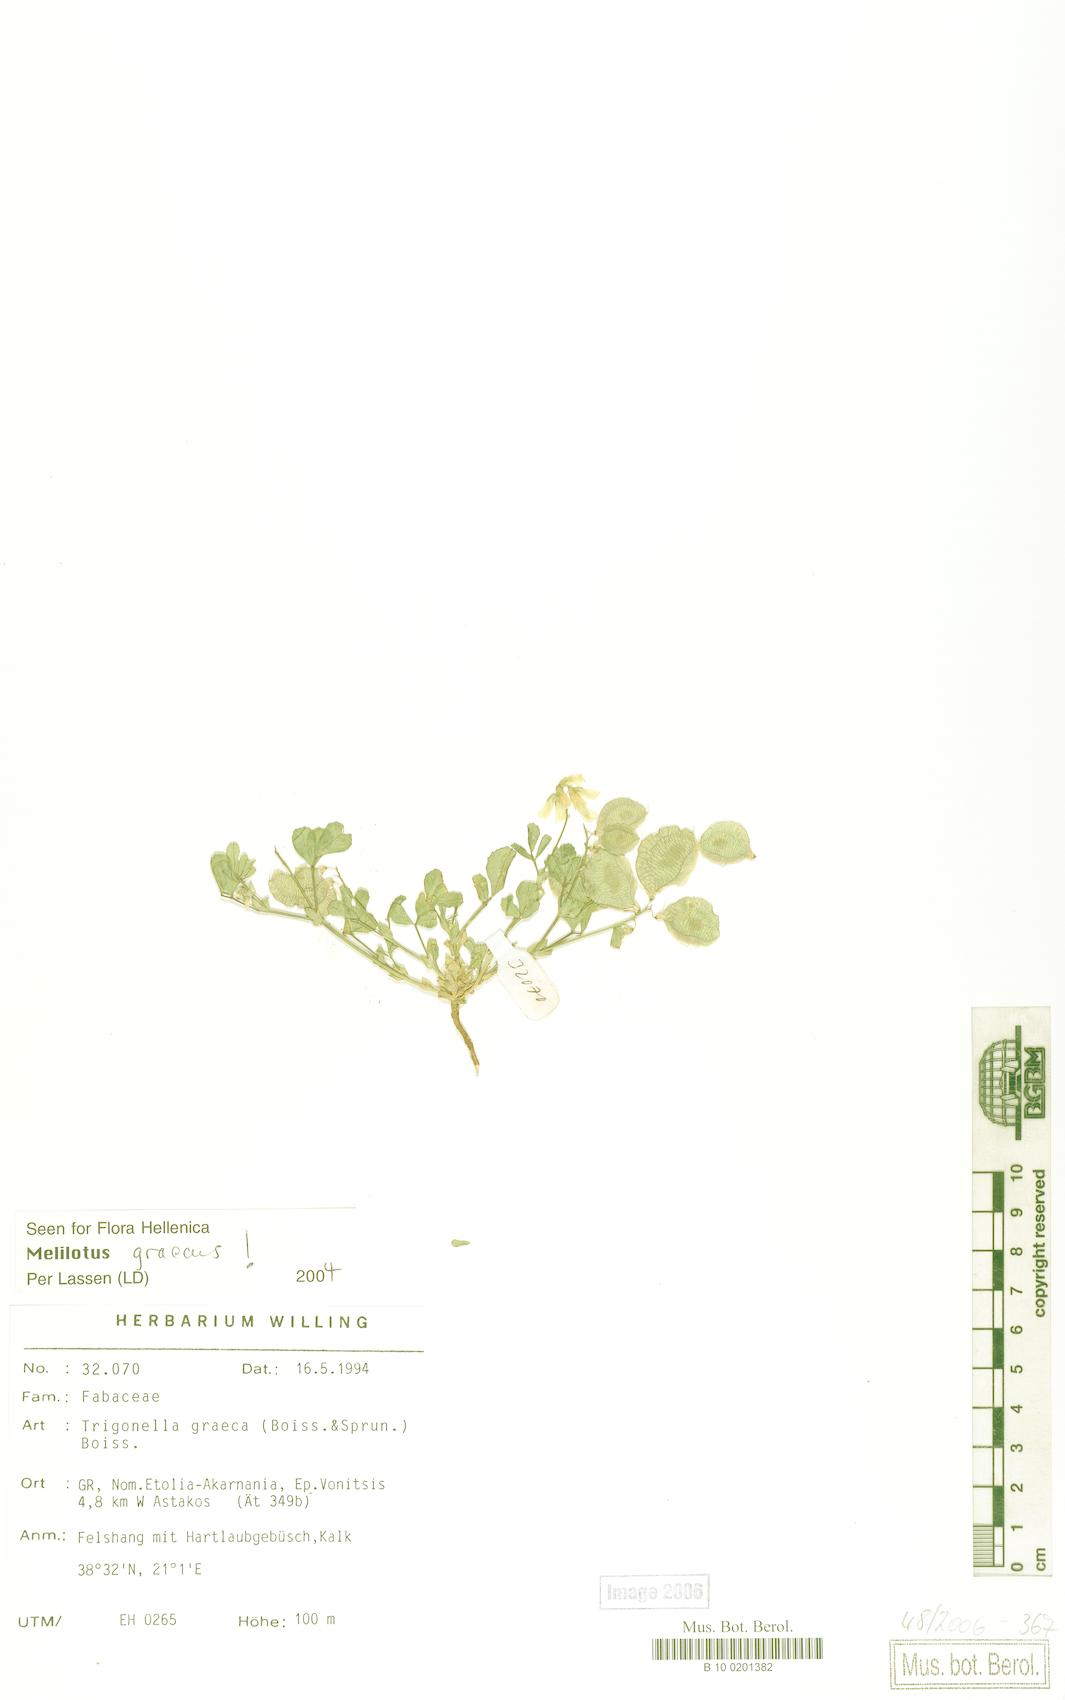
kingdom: Plantae
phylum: Tracheophyta
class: Magnoliopsida
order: Fabales
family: Fabaceae
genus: Trigonella
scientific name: Trigonella graeca
